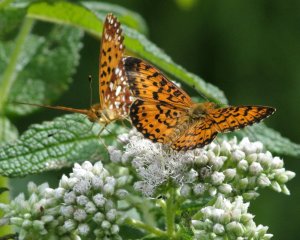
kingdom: Animalia
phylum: Arthropoda
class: Insecta
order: Lepidoptera
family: Nymphalidae
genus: Boloria
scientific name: Boloria selene
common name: Silver-bordered Fritillary
